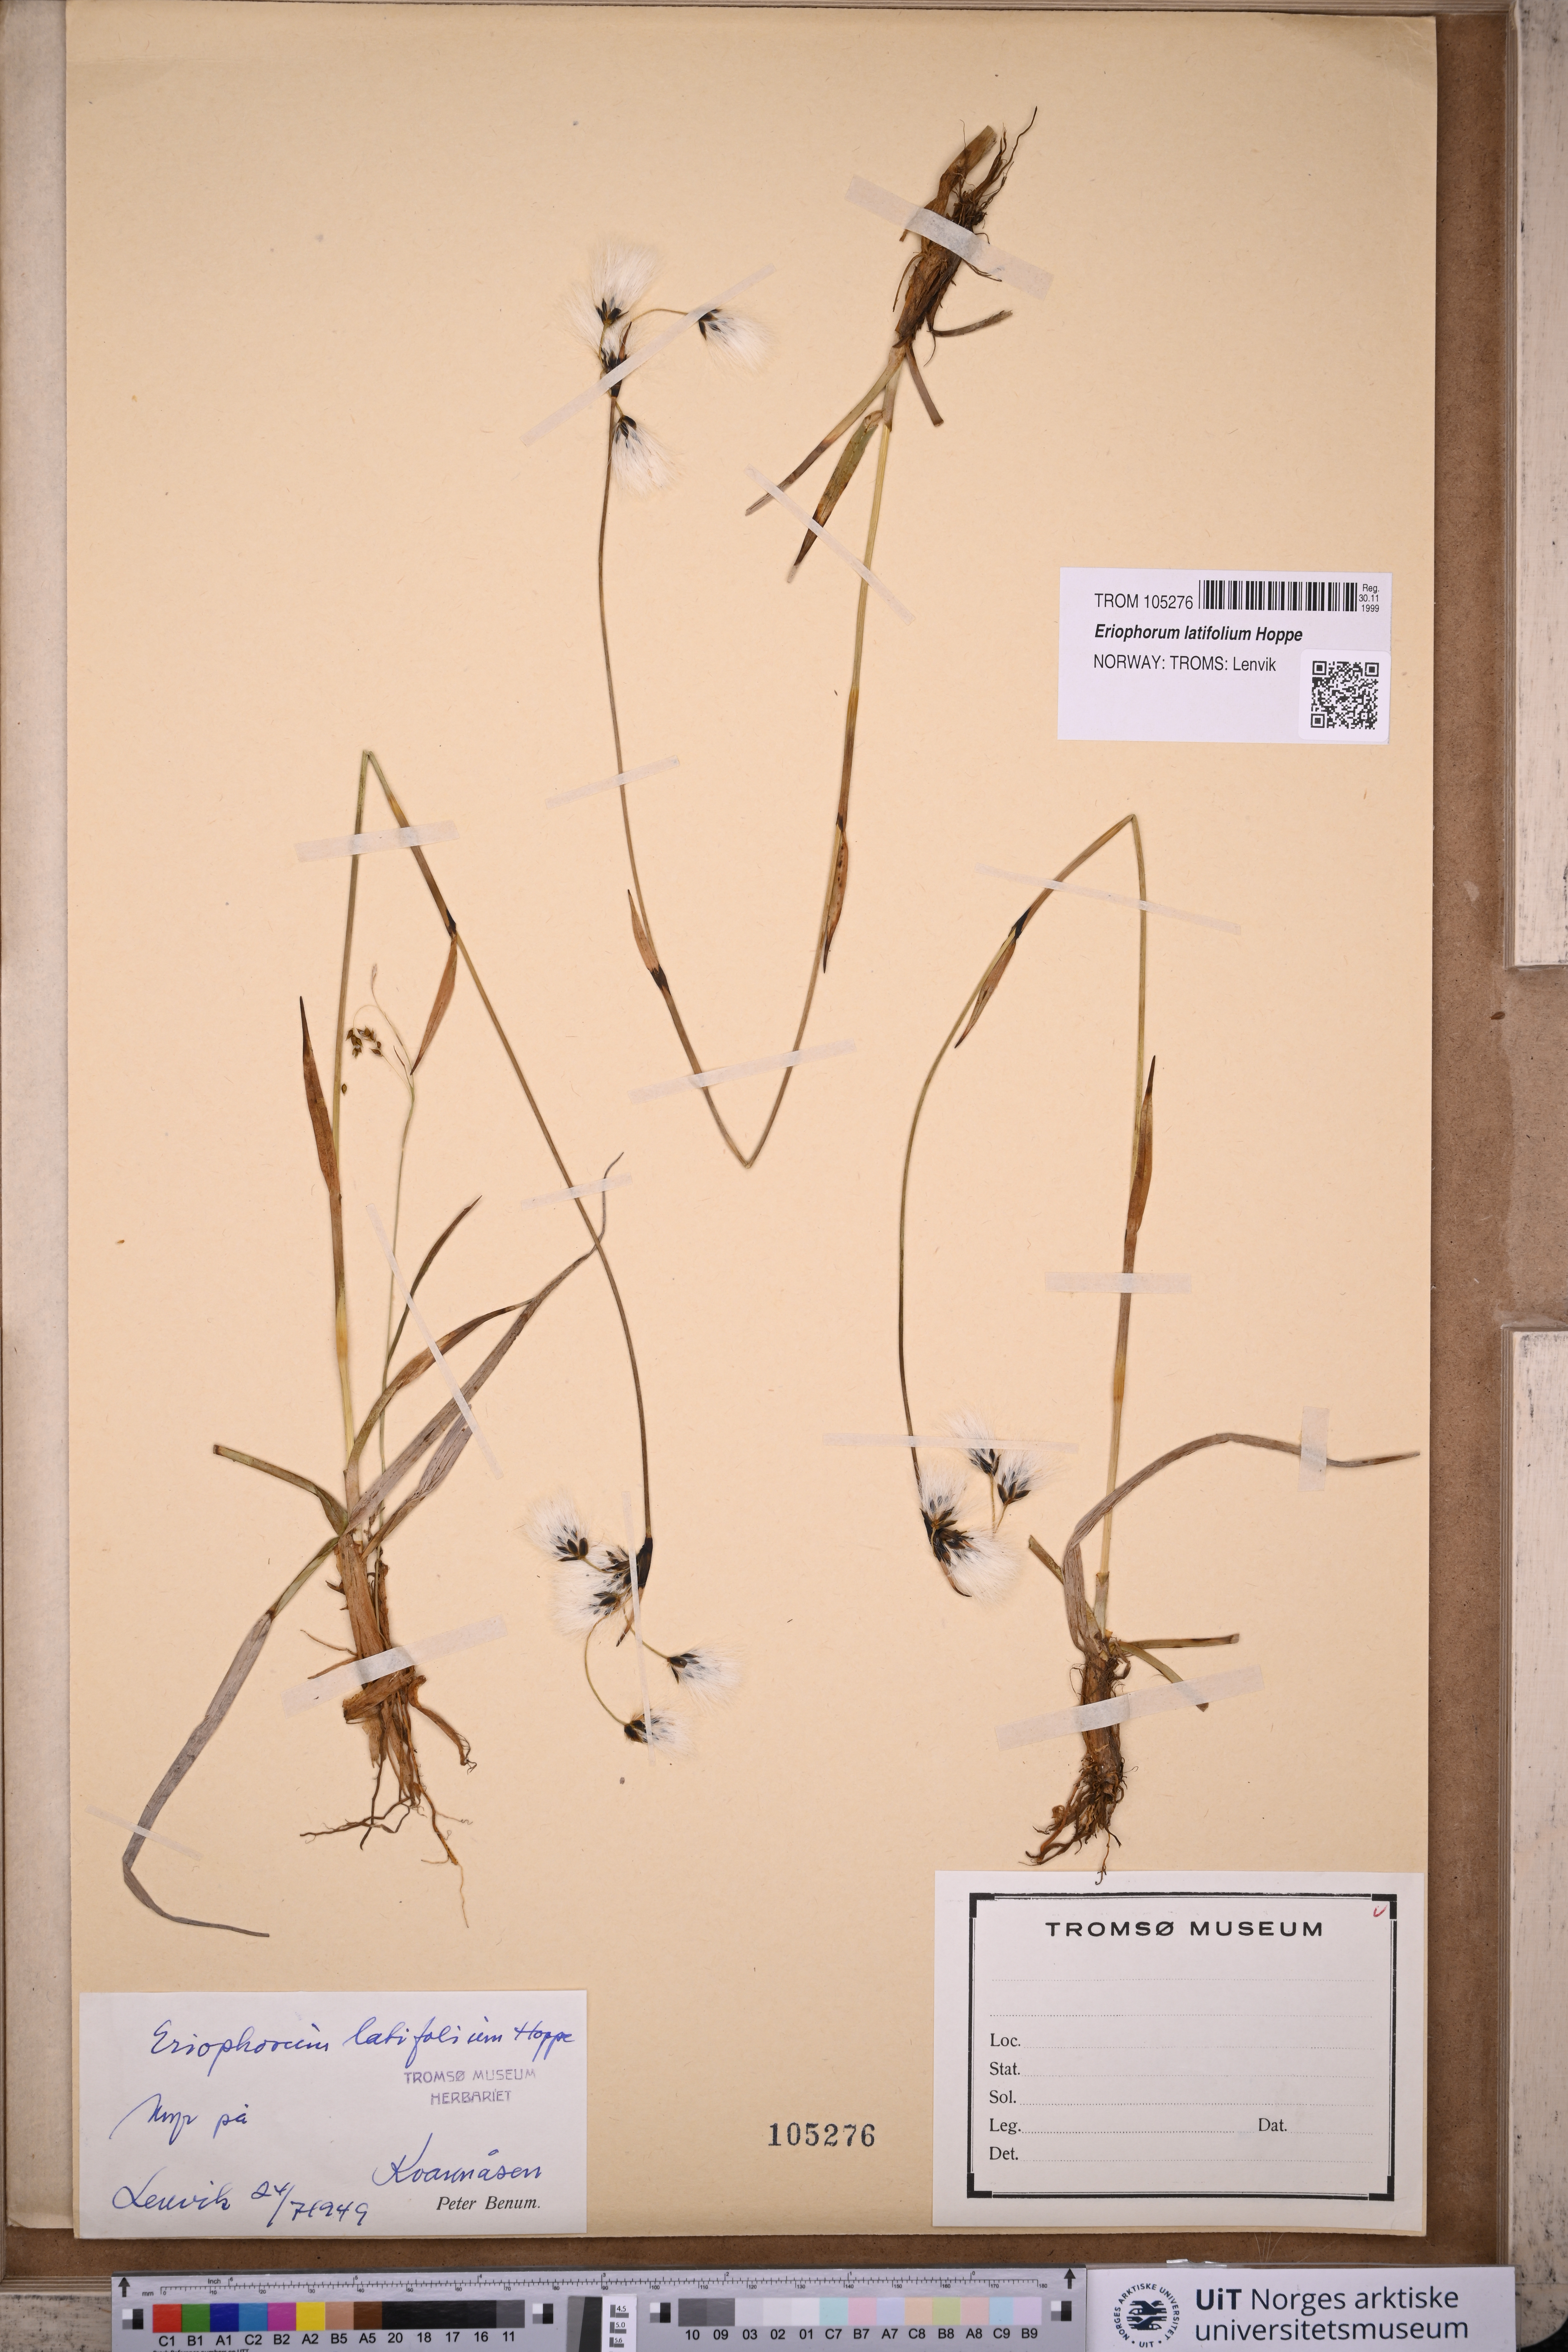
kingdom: Plantae
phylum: Tracheophyta
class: Liliopsida
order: Poales
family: Cyperaceae
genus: Eriophorum
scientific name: Eriophorum latifolium
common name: Broad-leaved cottongrass
